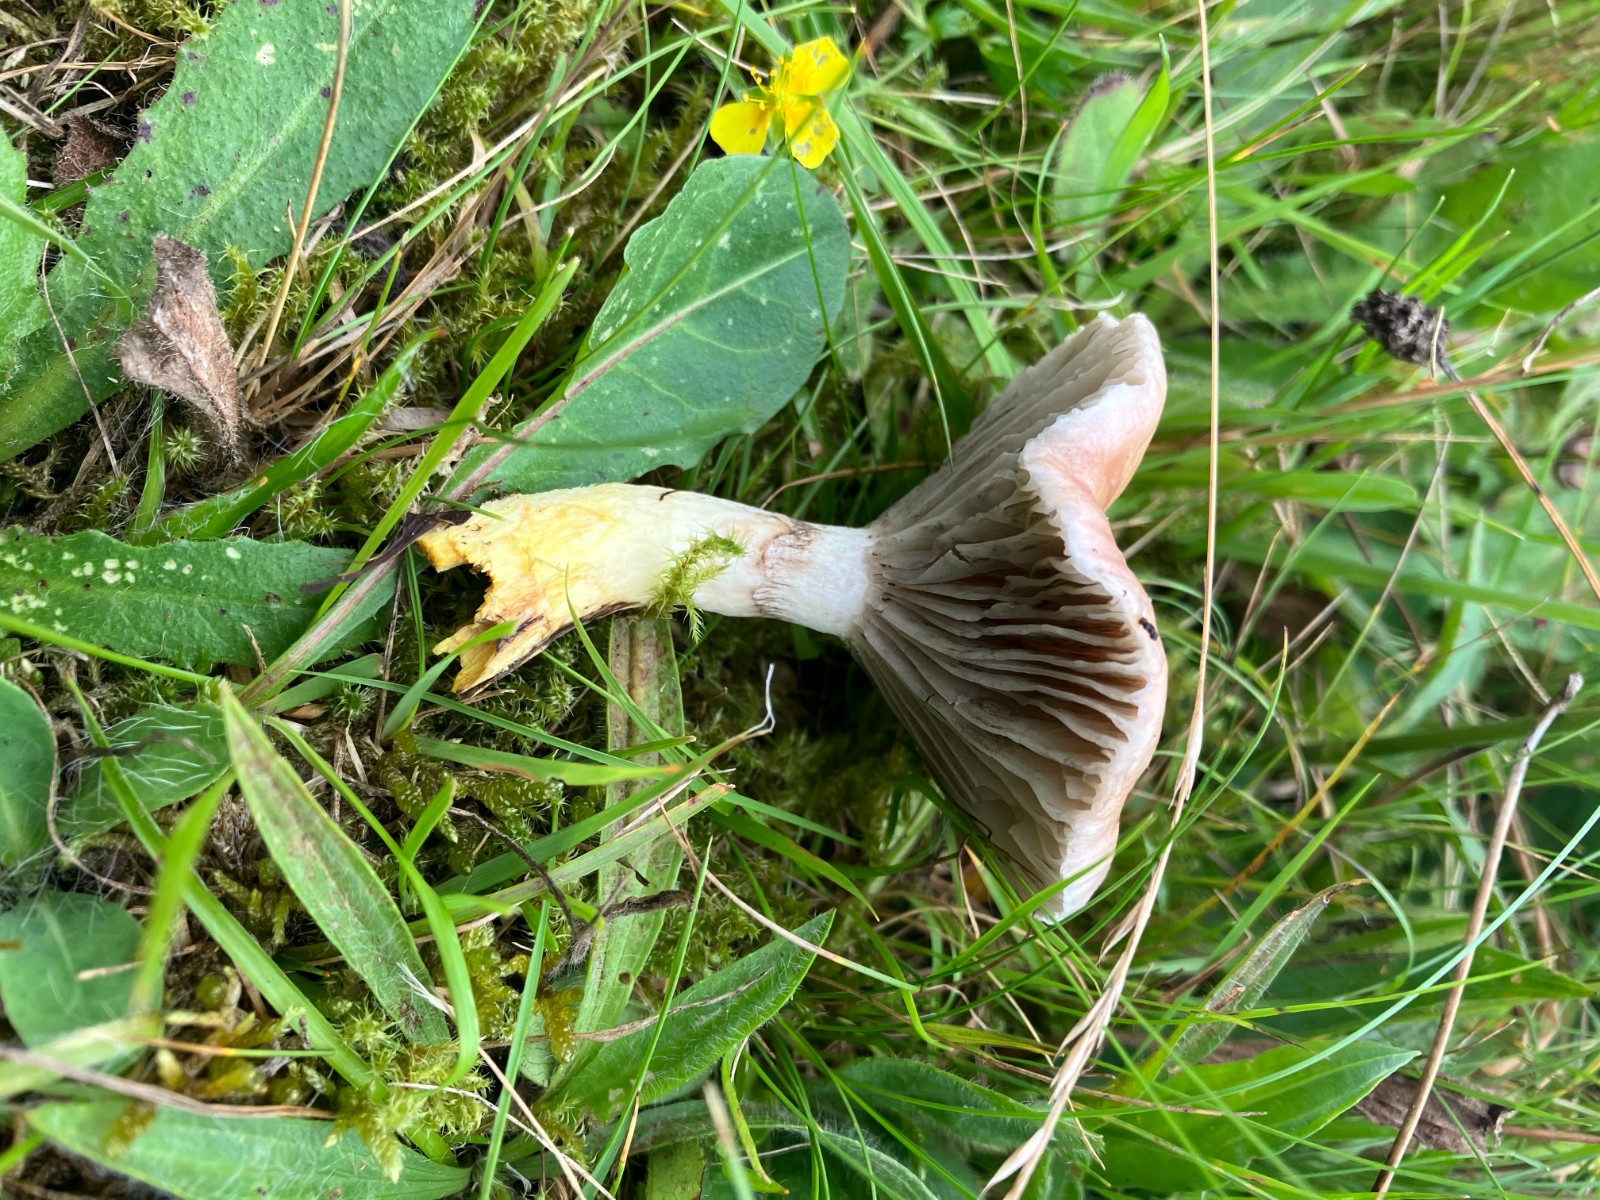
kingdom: Fungi
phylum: Basidiomycota
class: Agaricomycetes
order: Boletales
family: Gomphidiaceae
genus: Gomphidius
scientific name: Gomphidius glutinosus
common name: grå slimslør
